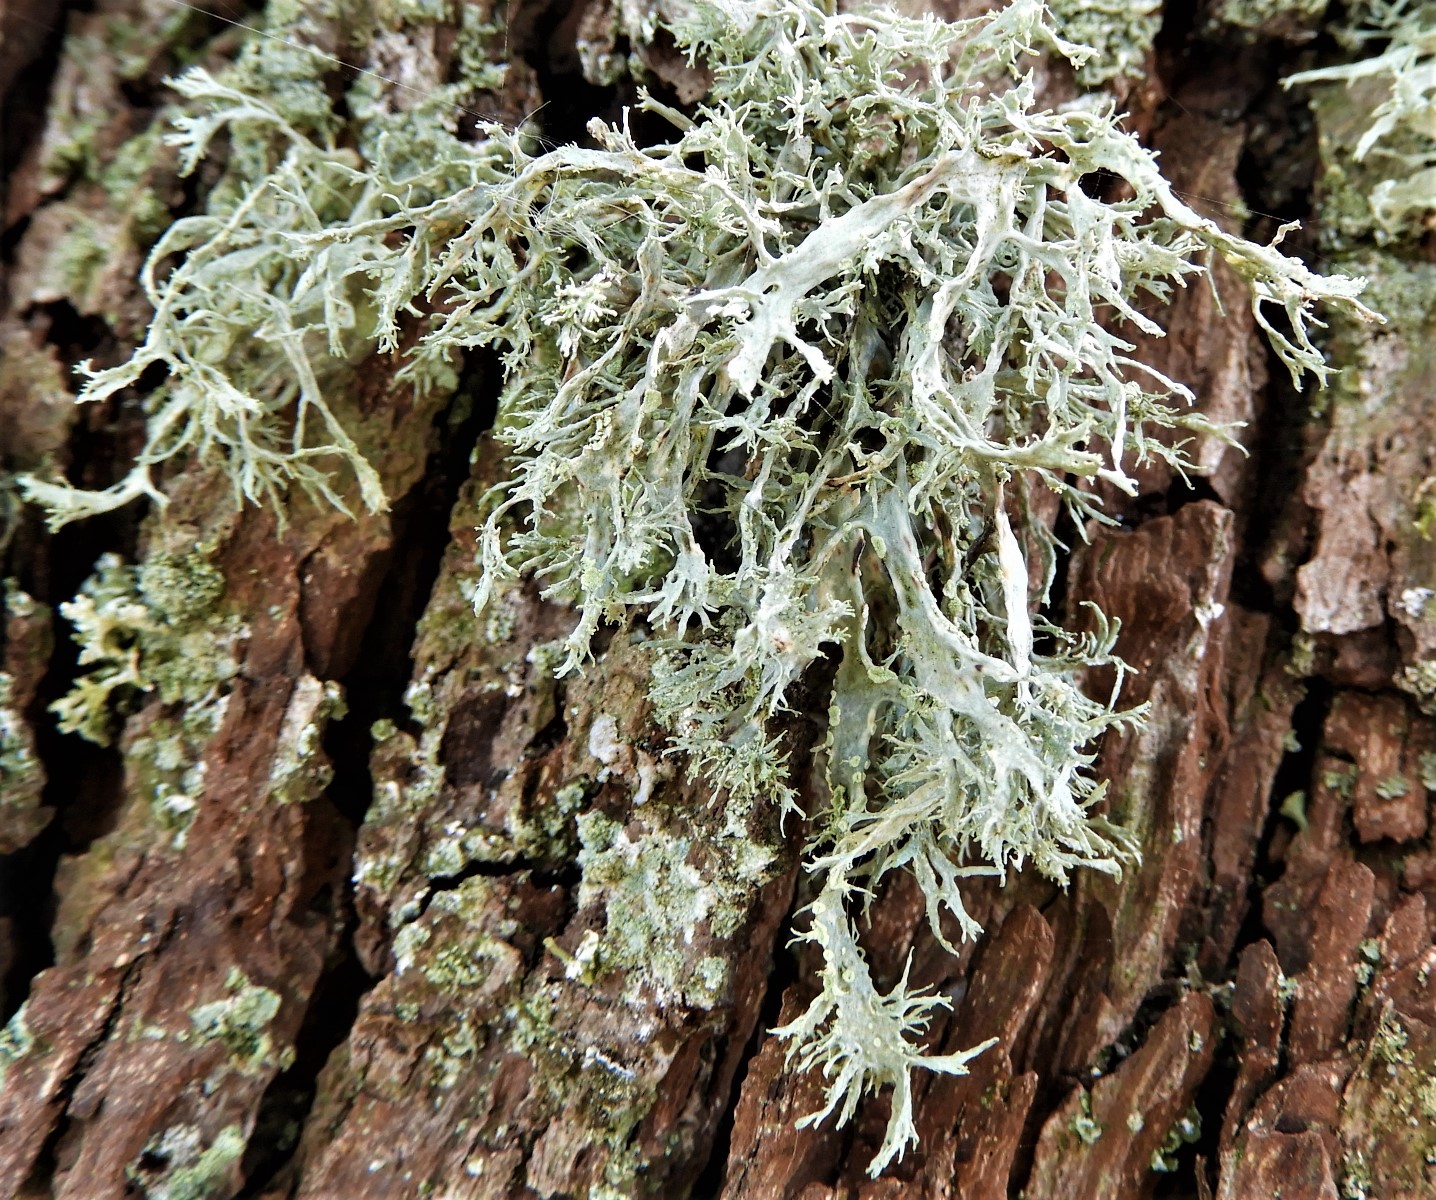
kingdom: Fungi
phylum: Ascomycota
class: Lecanoromycetes
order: Lecanorales
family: Ramalinaceae
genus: Ramalina
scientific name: Ramalina farinacea
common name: melet grenlav
